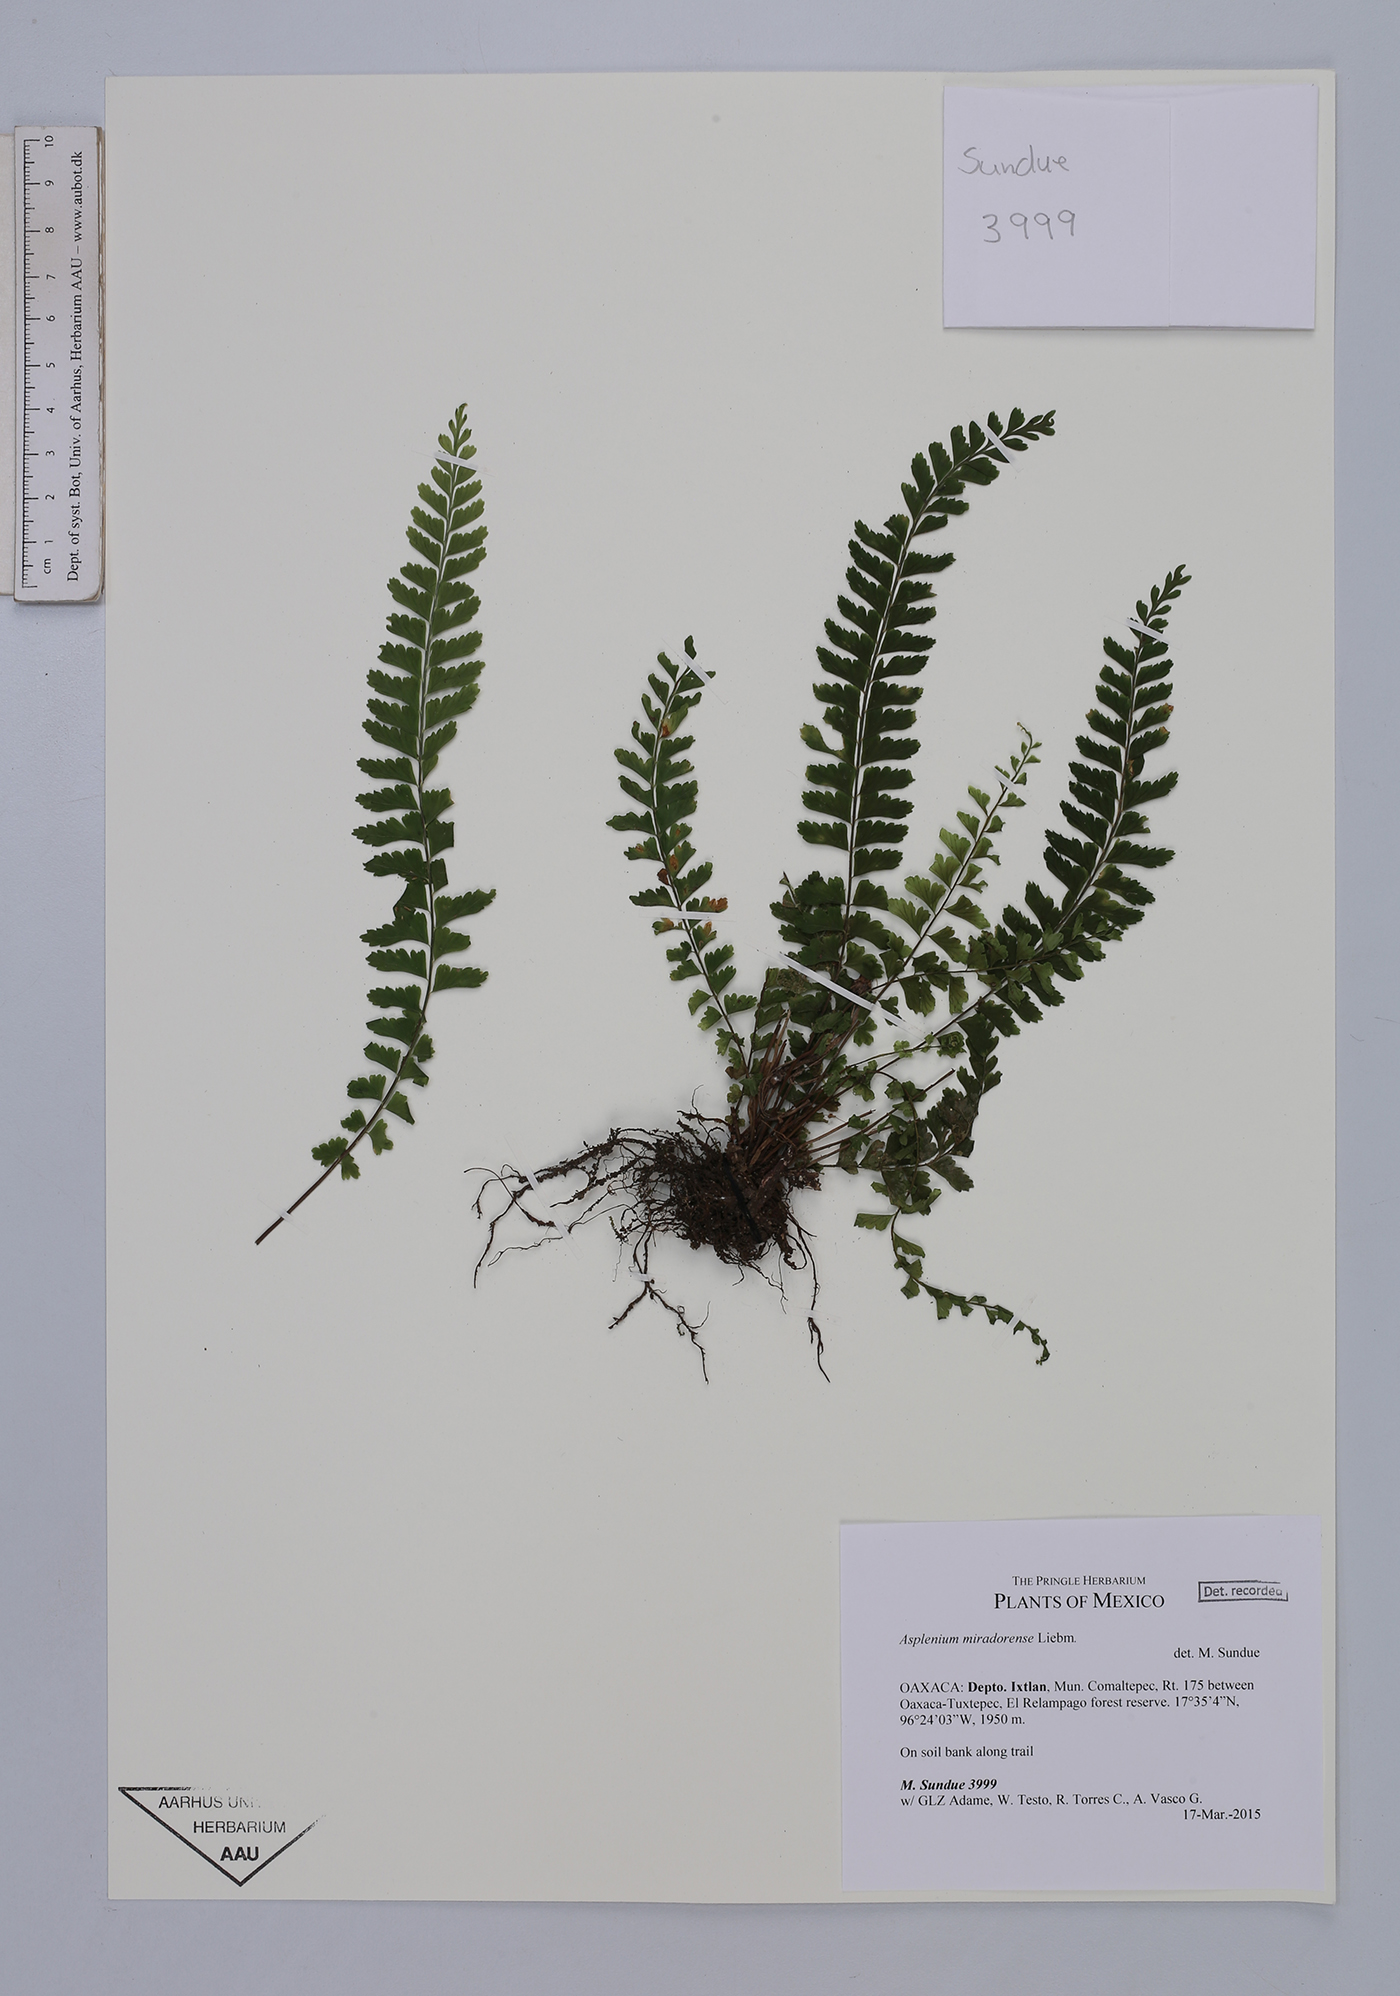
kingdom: Plantae
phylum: Tracheophyta
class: Polypodiopsida
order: Polypodiales
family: Aspleniaceae
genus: Asplenium
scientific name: Asplenium miradorense
